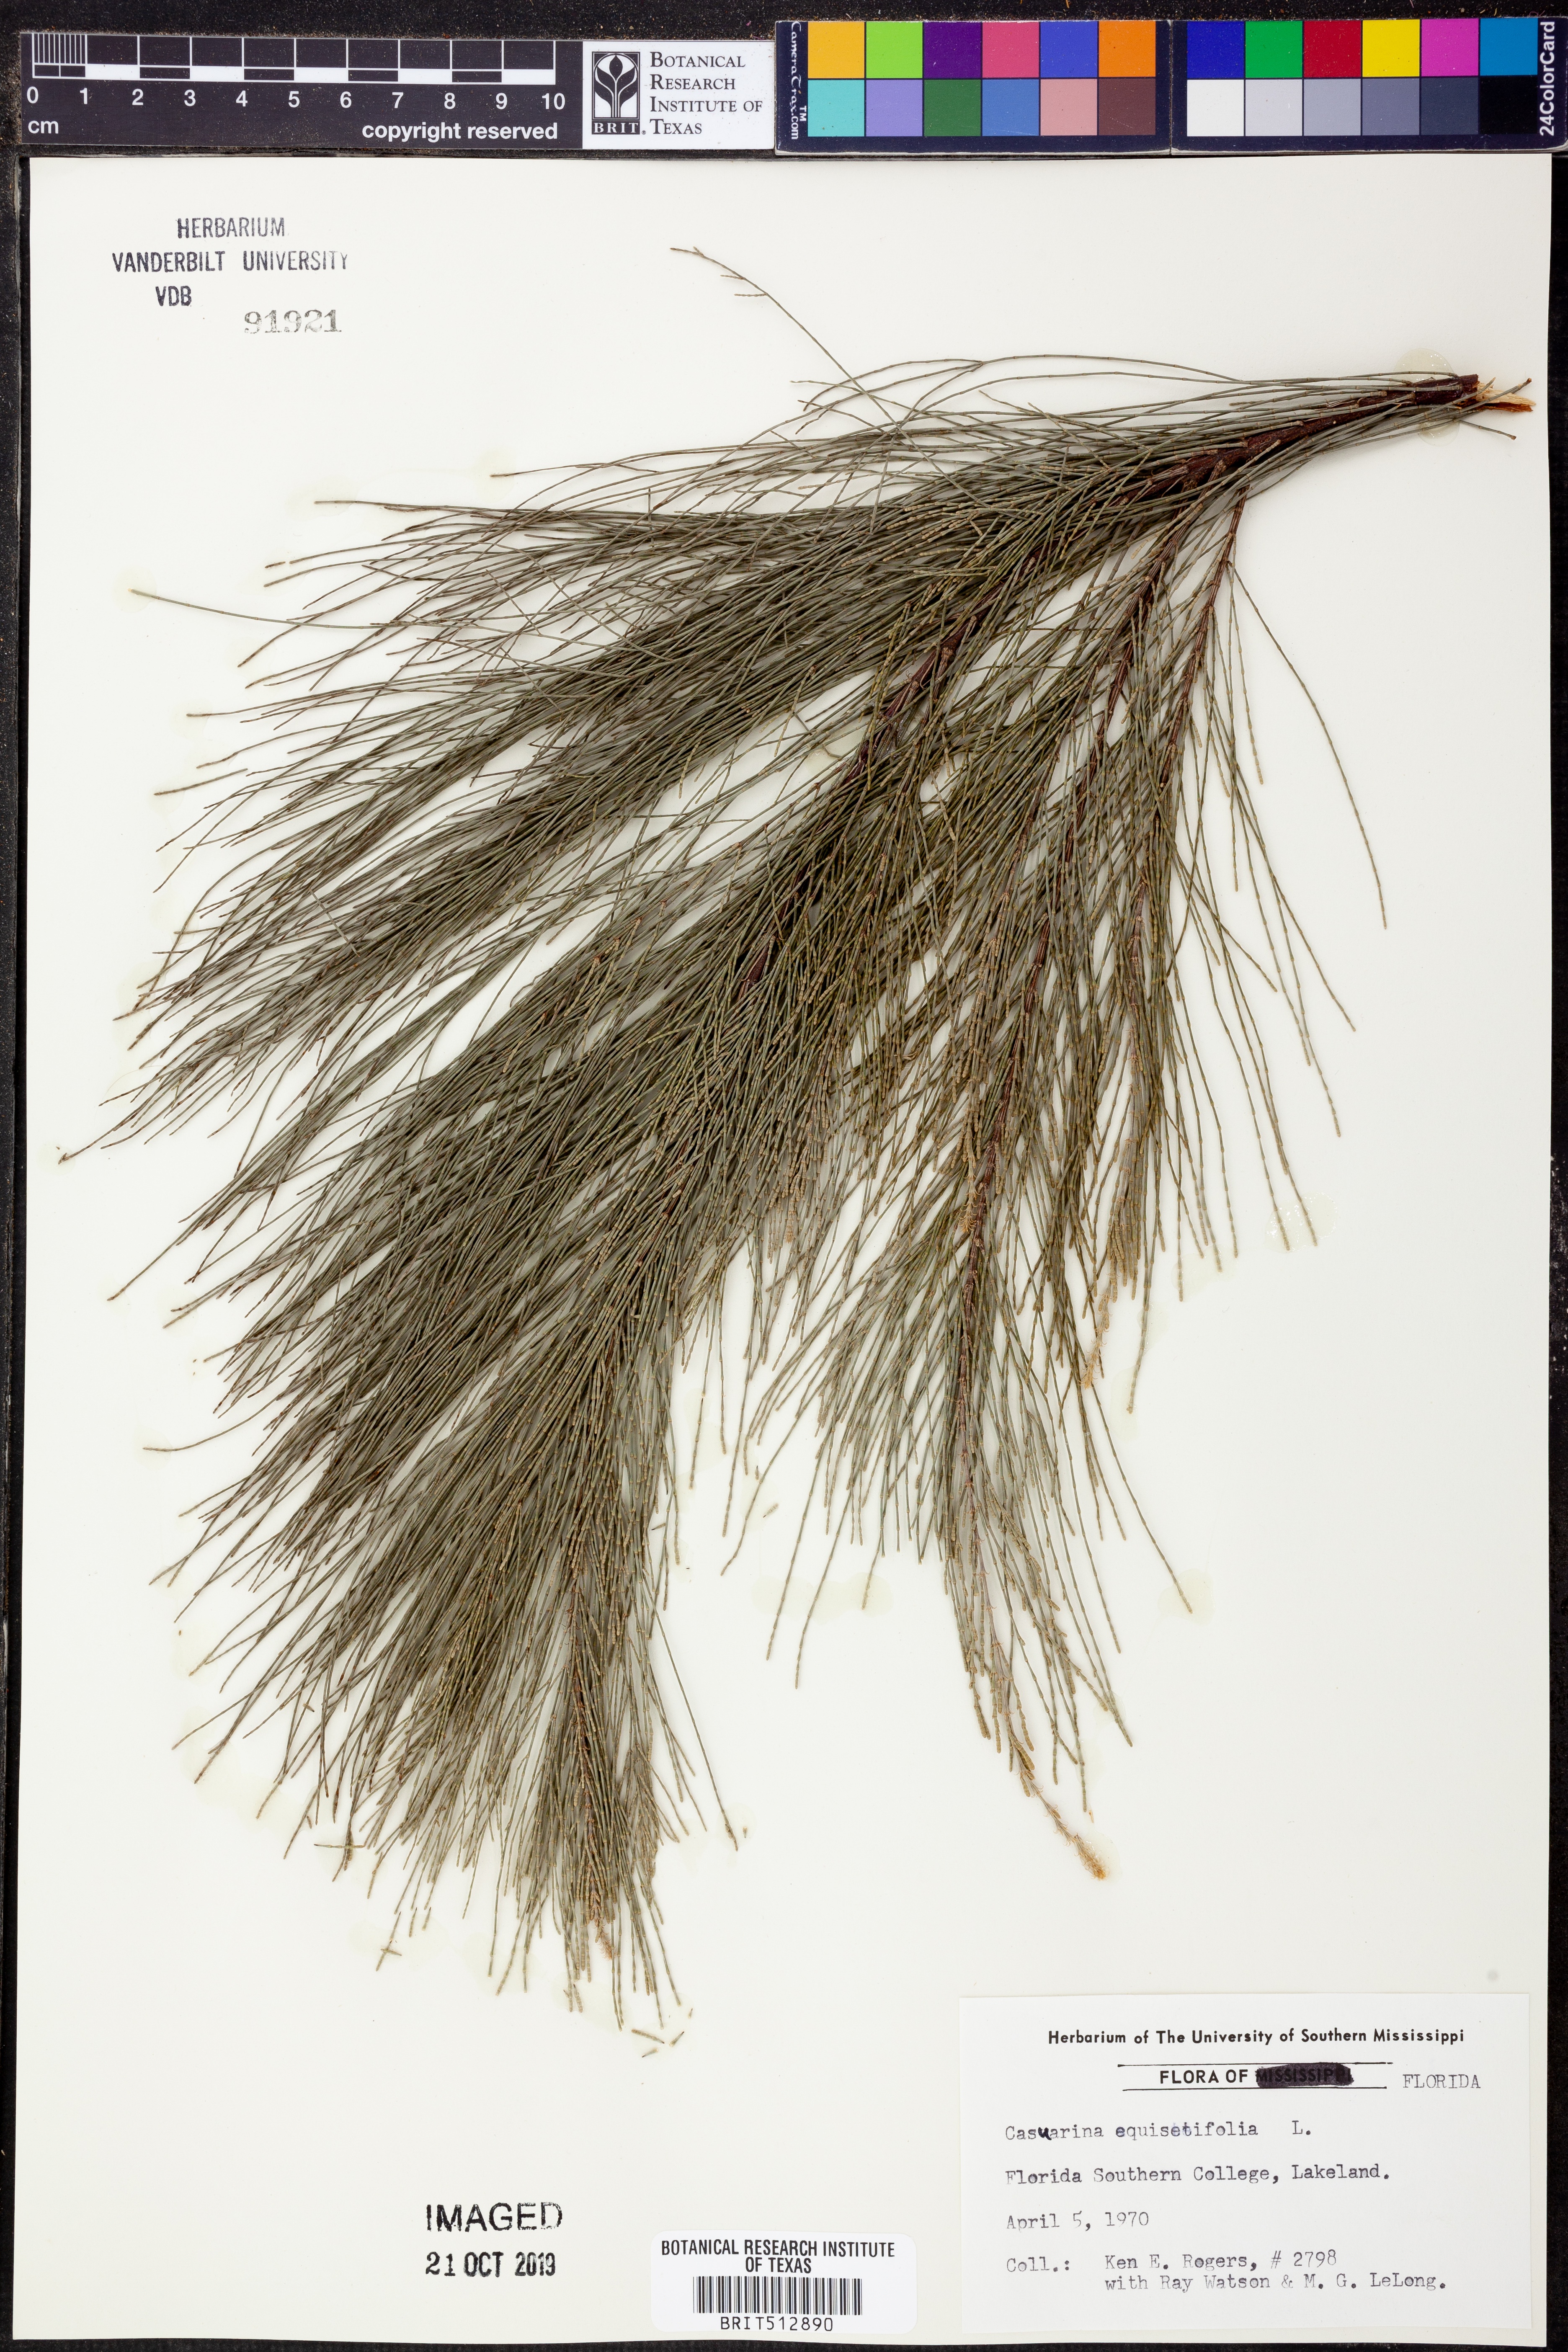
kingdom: Plantae
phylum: Tracheophyta
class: Magnoliopsida
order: Fagales
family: Casuarinaceae
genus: Casuarina
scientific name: Casuarina equisetifolia
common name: Beach sheoak
